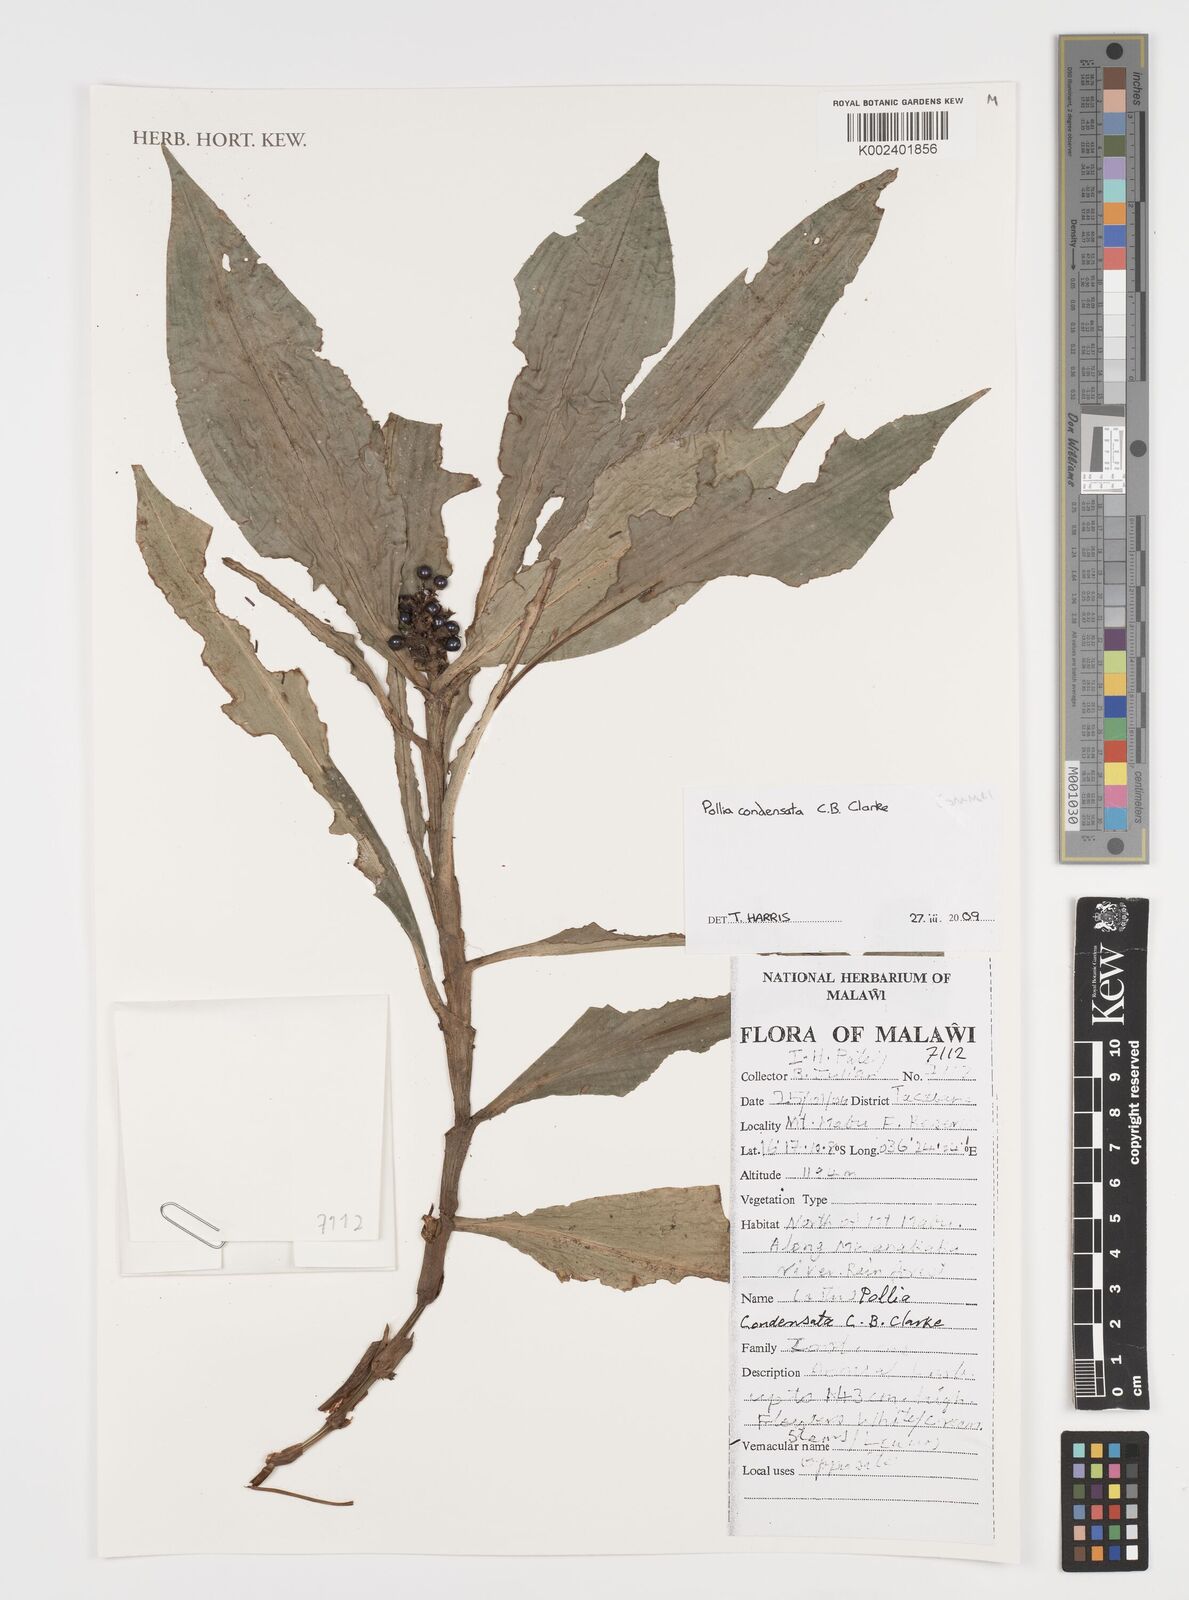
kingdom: Plantae
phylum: Tracheophyta
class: Liliopsida
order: Commelinales
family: Commelinaceae
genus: Pollia
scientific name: Pollia condensata
